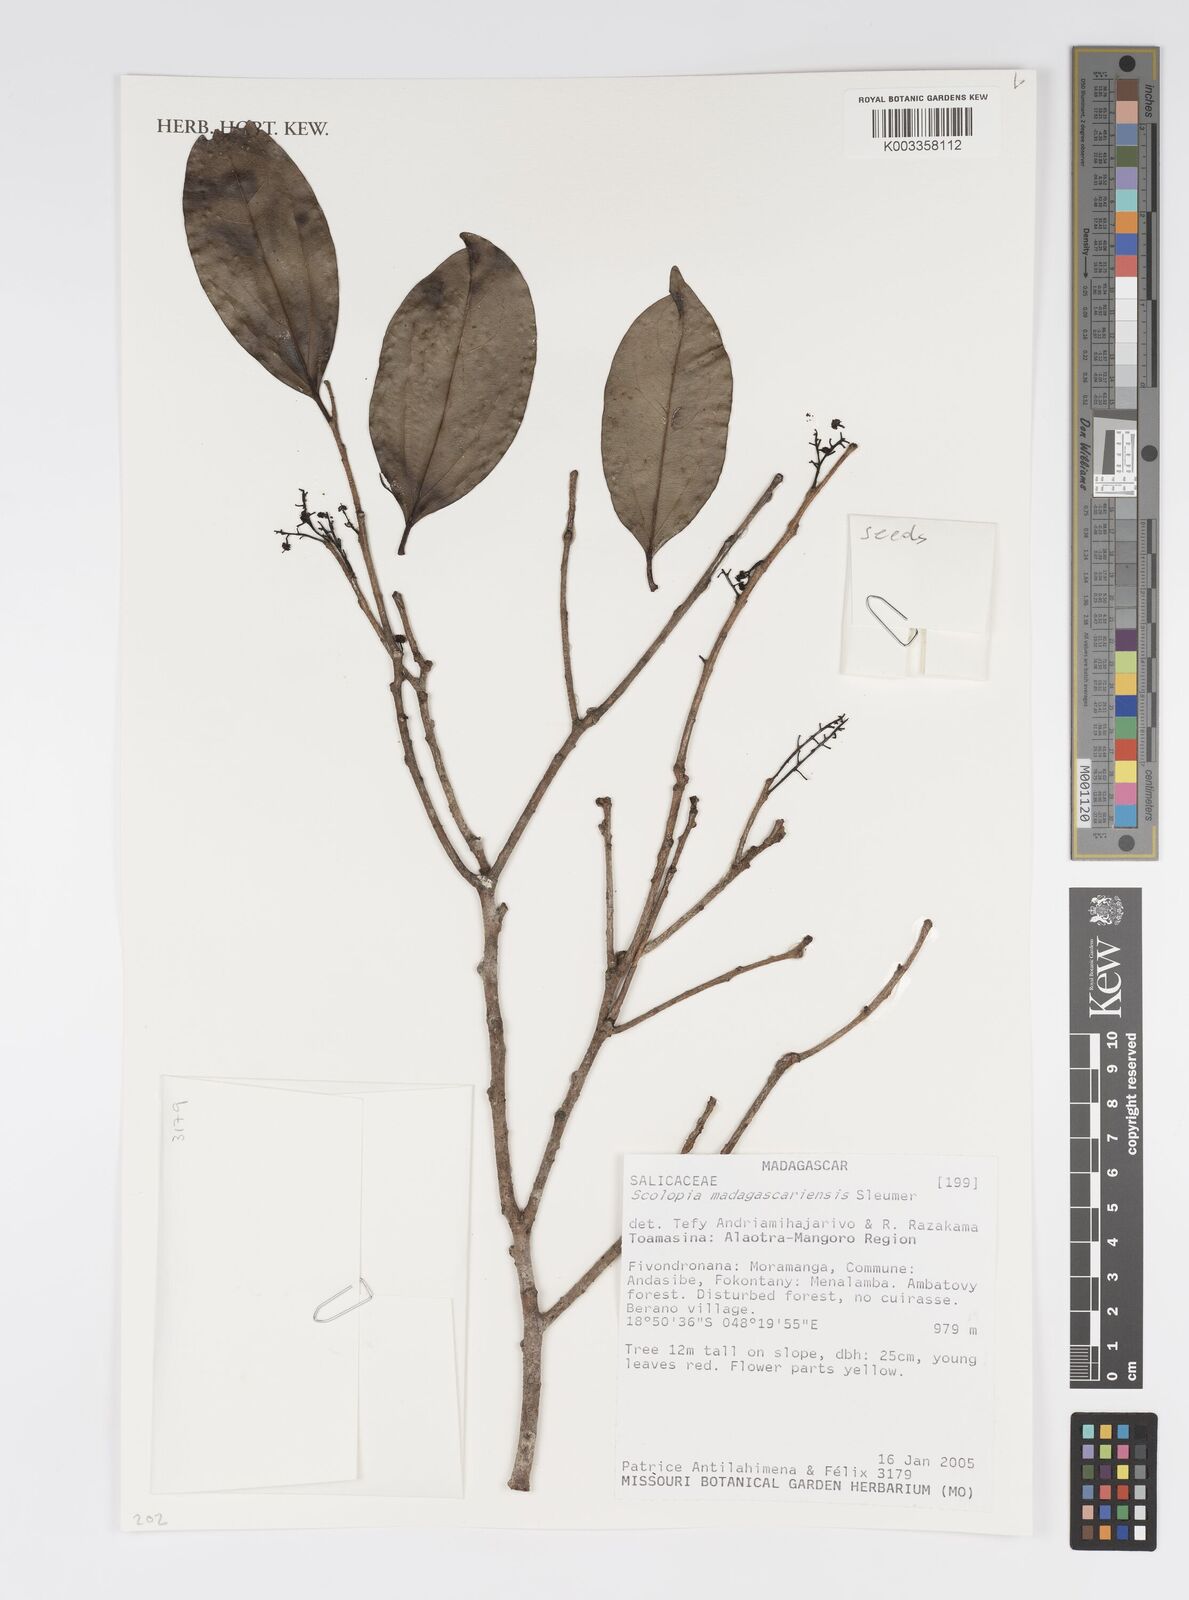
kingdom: Plantae
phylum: Tracheophyta
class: Magnoliopsida
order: Malpighiales
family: Salicaceae
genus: Scolopia
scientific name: Scolopia madagascariensis
